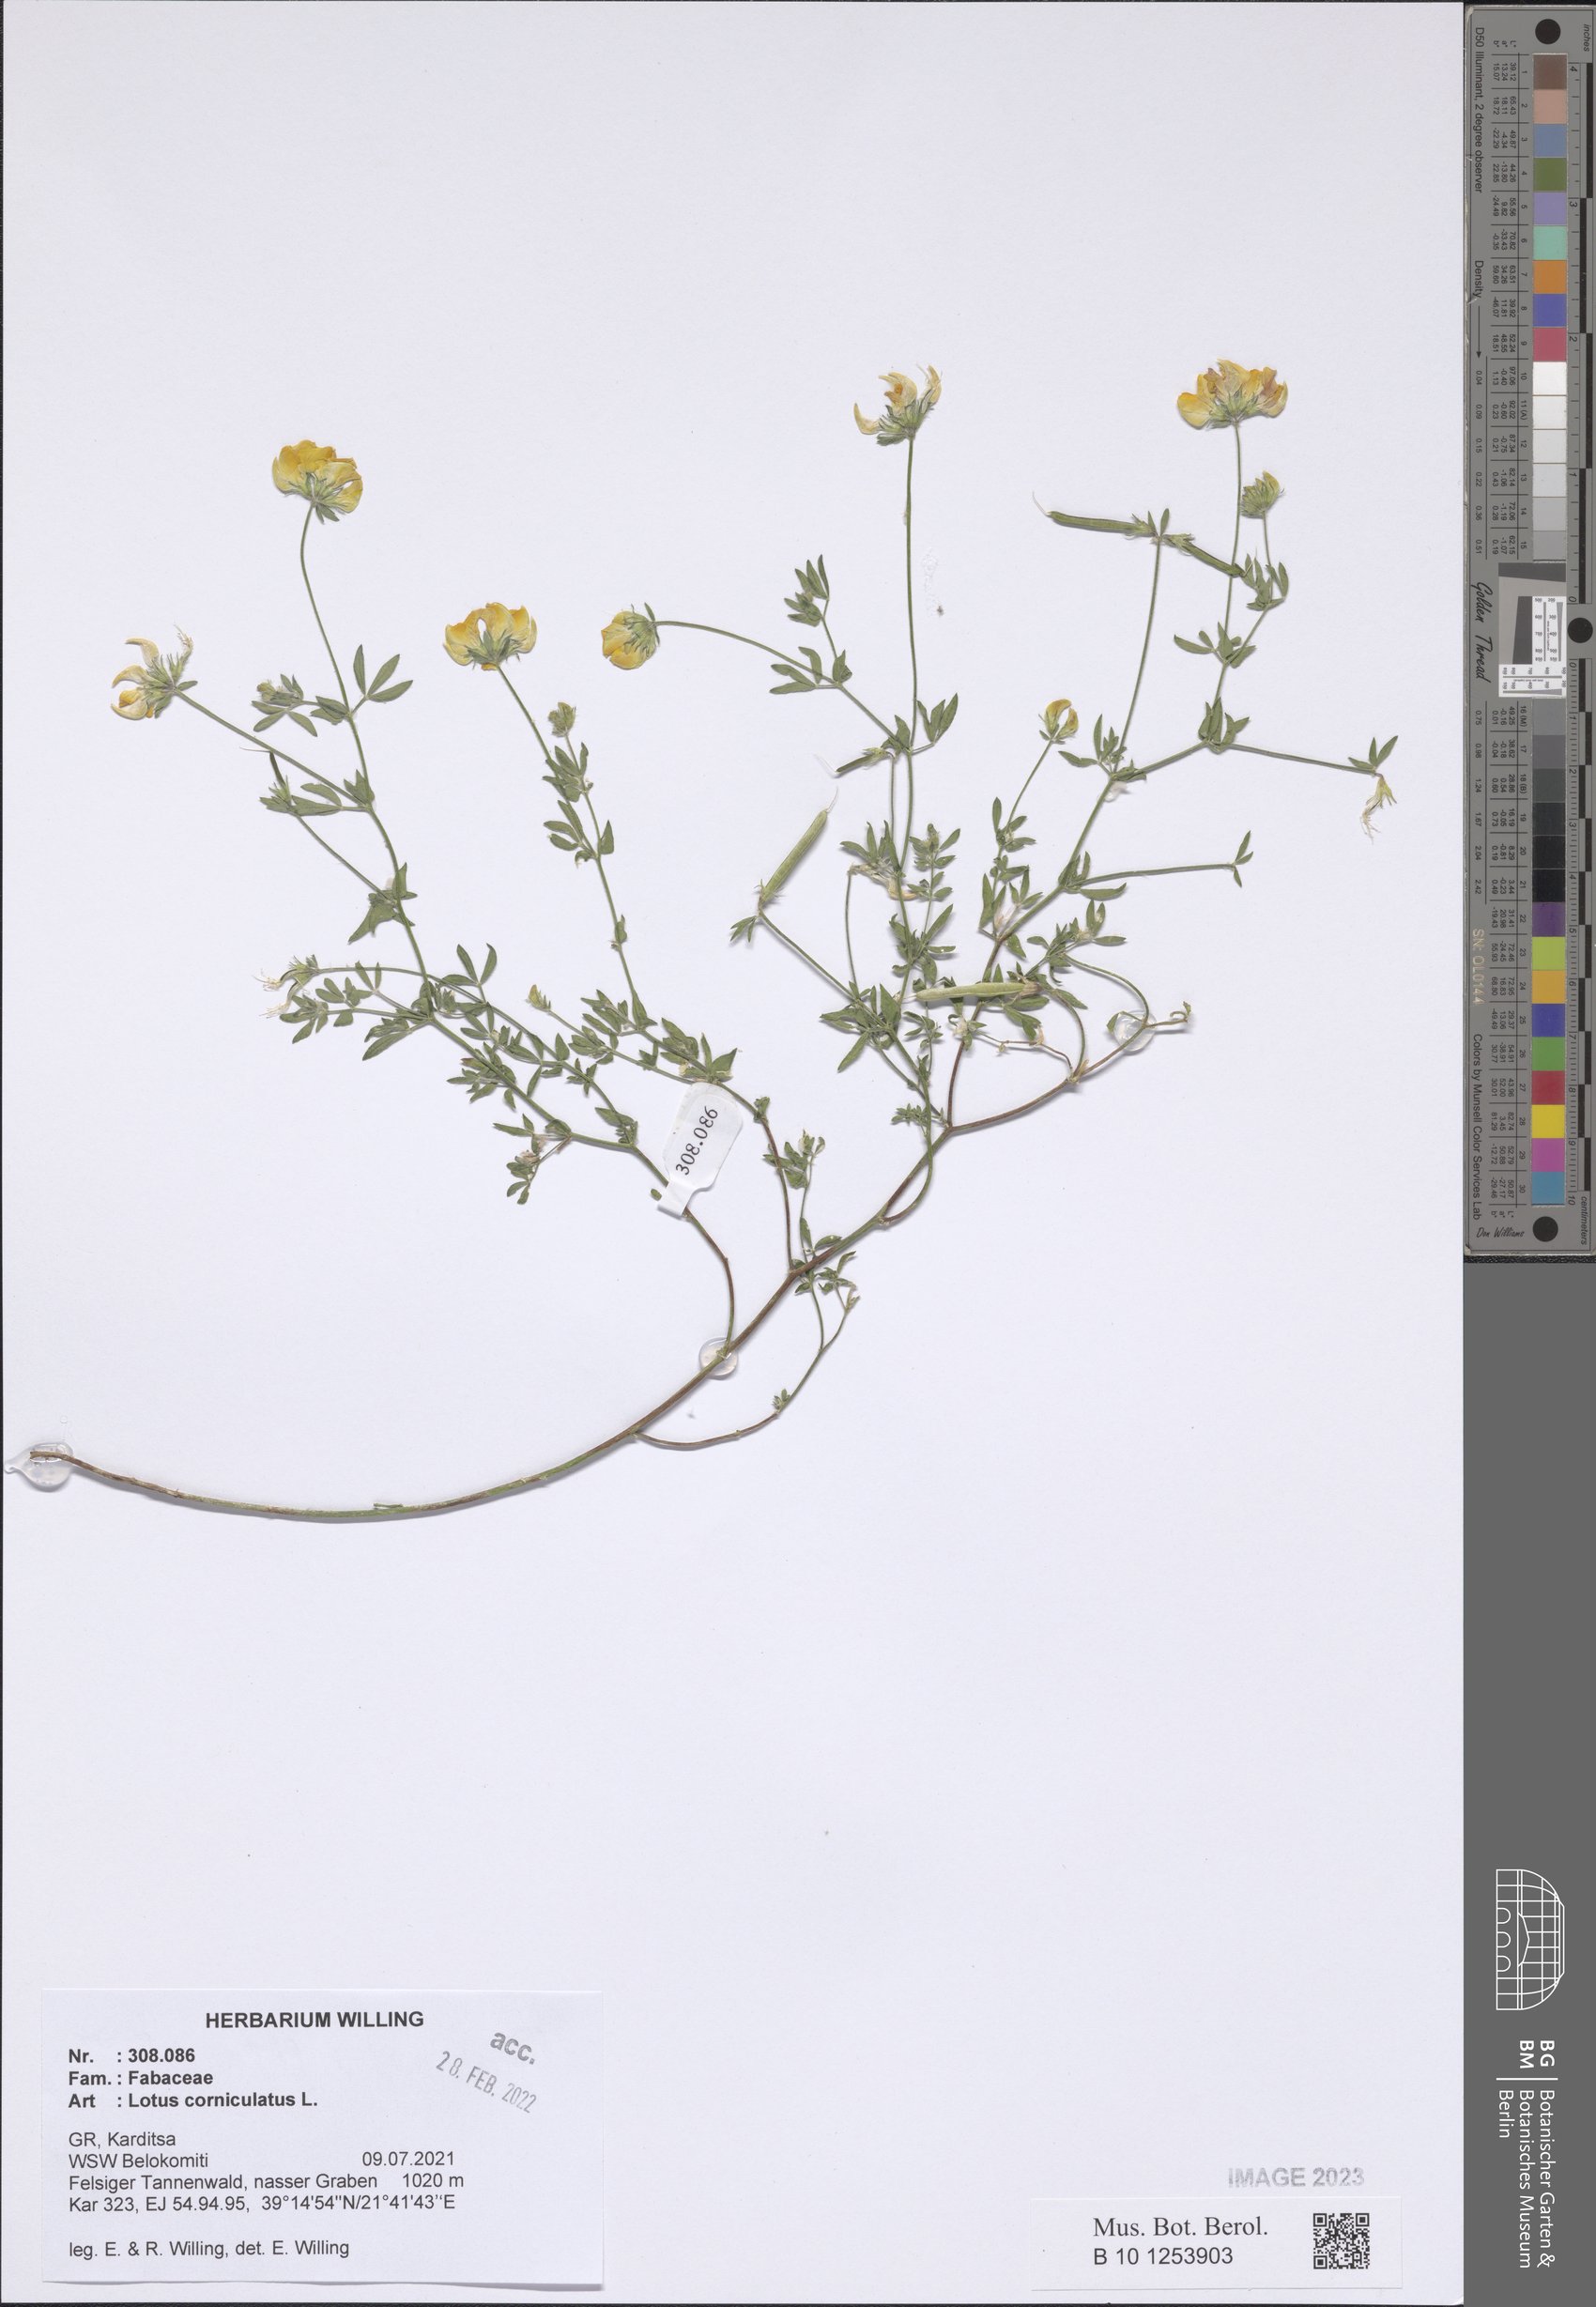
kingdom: Plantae
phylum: Tracheophyta
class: Magnoliopsida
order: Fabales
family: Fabaceae
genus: Lotus
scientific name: Lotus corniculatus
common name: Common bird's-foot-trefoil
